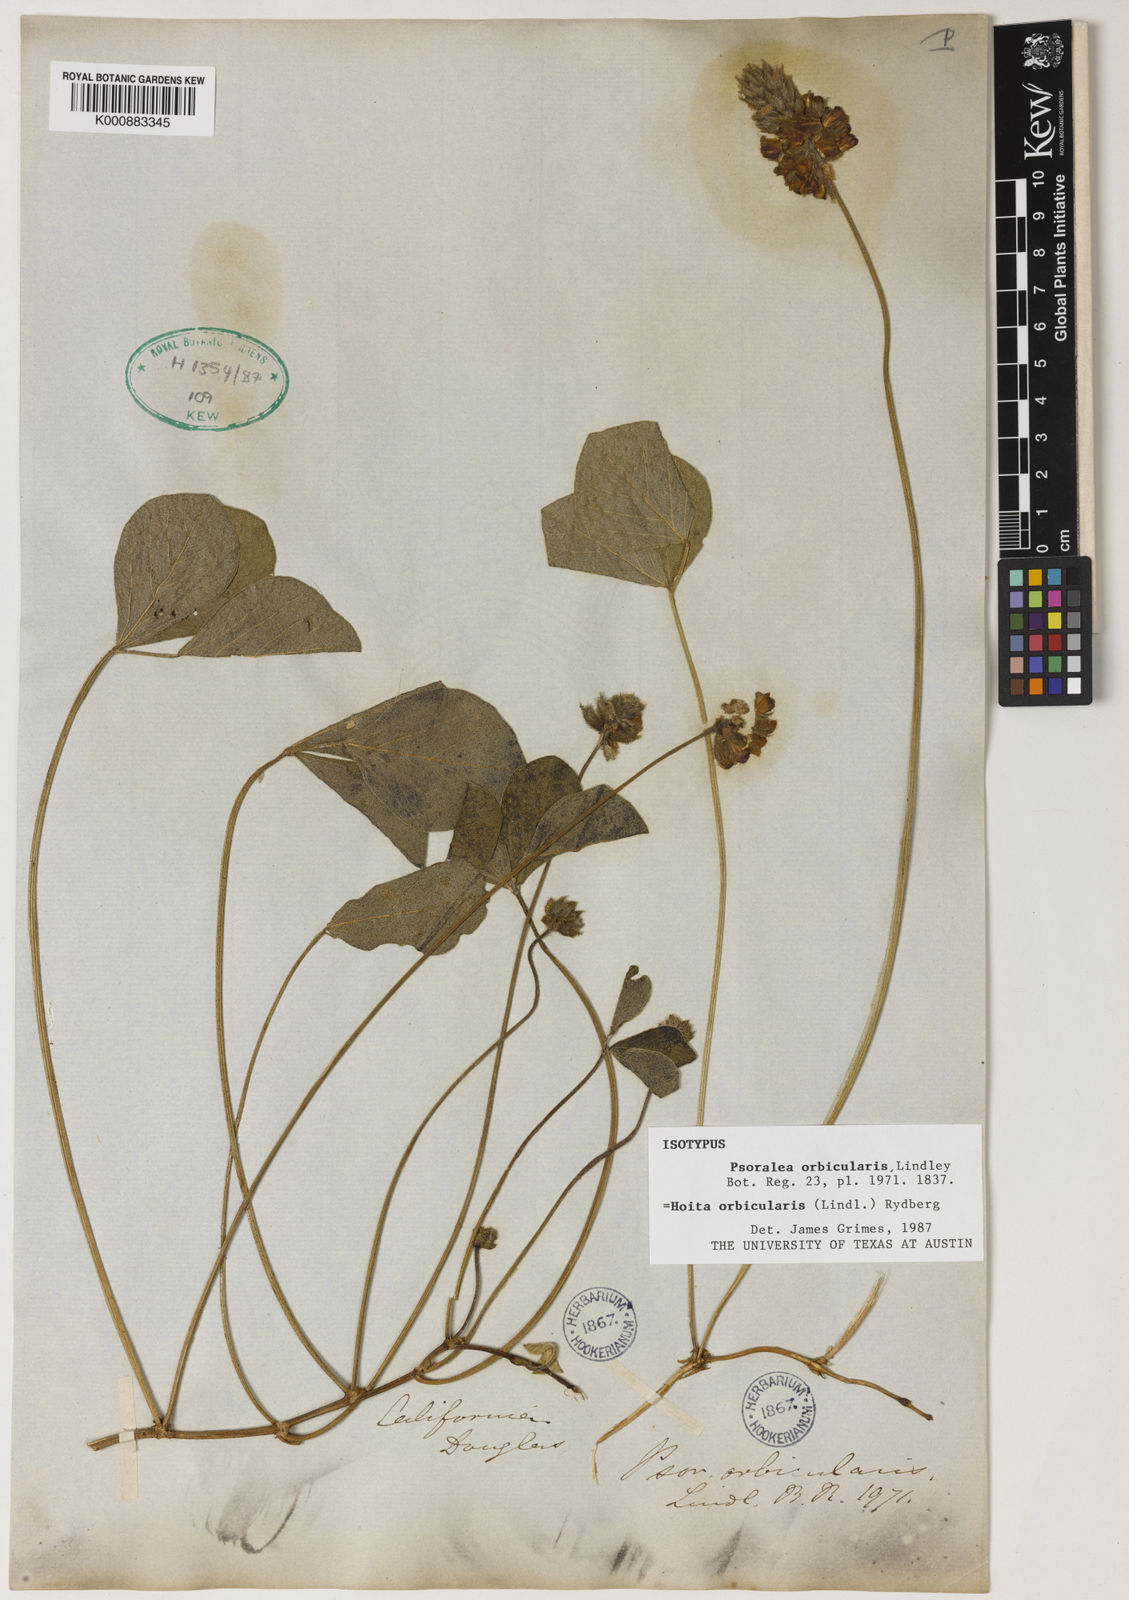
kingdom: Plantae
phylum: Tracheophyta
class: Magnoliopsida
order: Fabales
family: Fabaceae
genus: Hoita
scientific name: Hoita orbicularis
